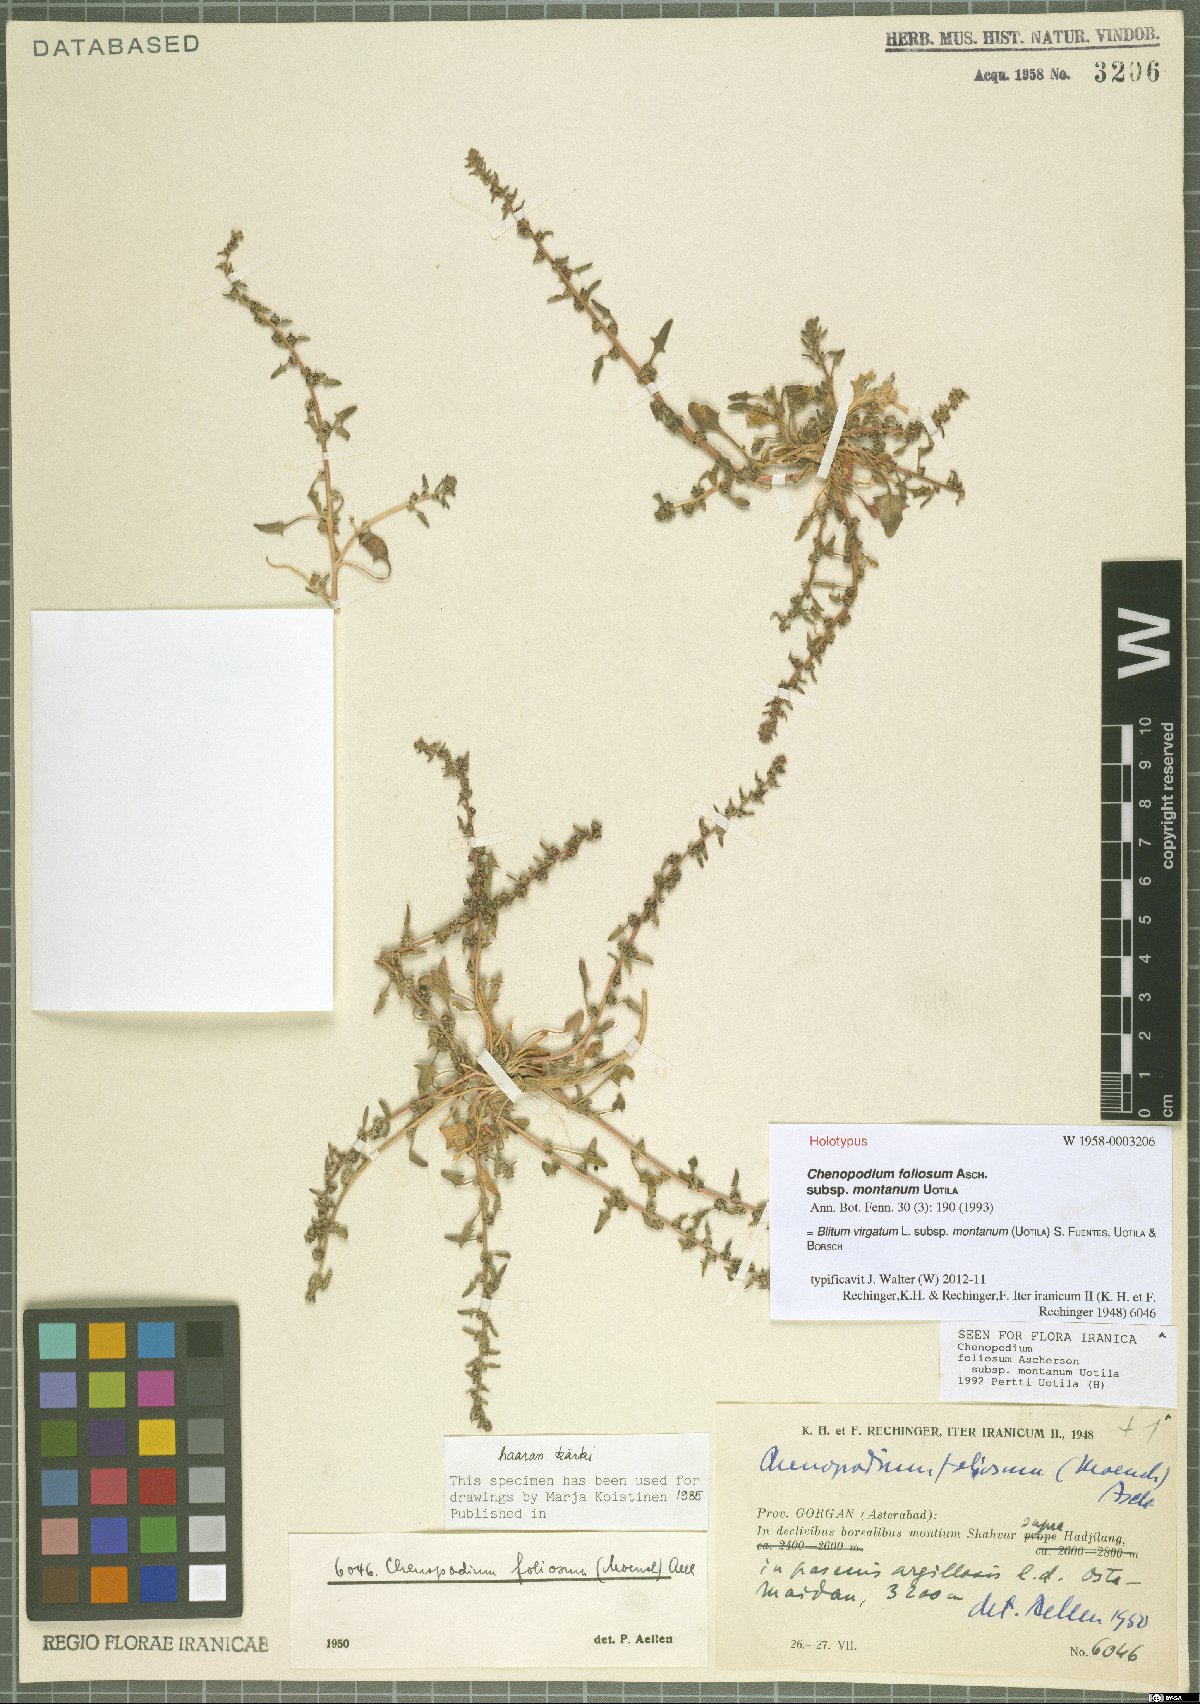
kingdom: Plantae
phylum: Tracheophyta
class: Magnoliopsida
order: Caryophyllales
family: Amaranthaceae
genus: Blitum
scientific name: Blitum virgatum
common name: Strawberry goosefoot
